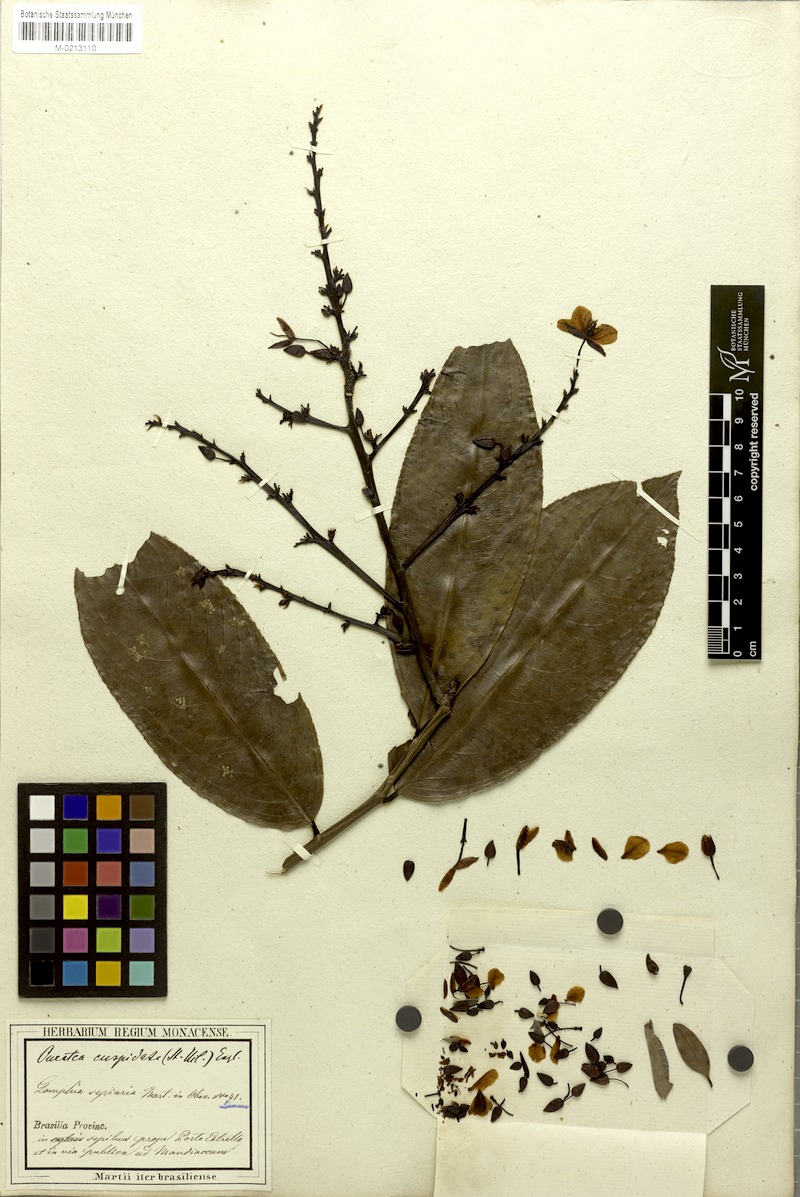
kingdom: Plantae
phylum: Tracheophyta
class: Magnoliopsida
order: Malpighiales
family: Ochnaceae
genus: Ouratea
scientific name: Ouratea cuspidata
